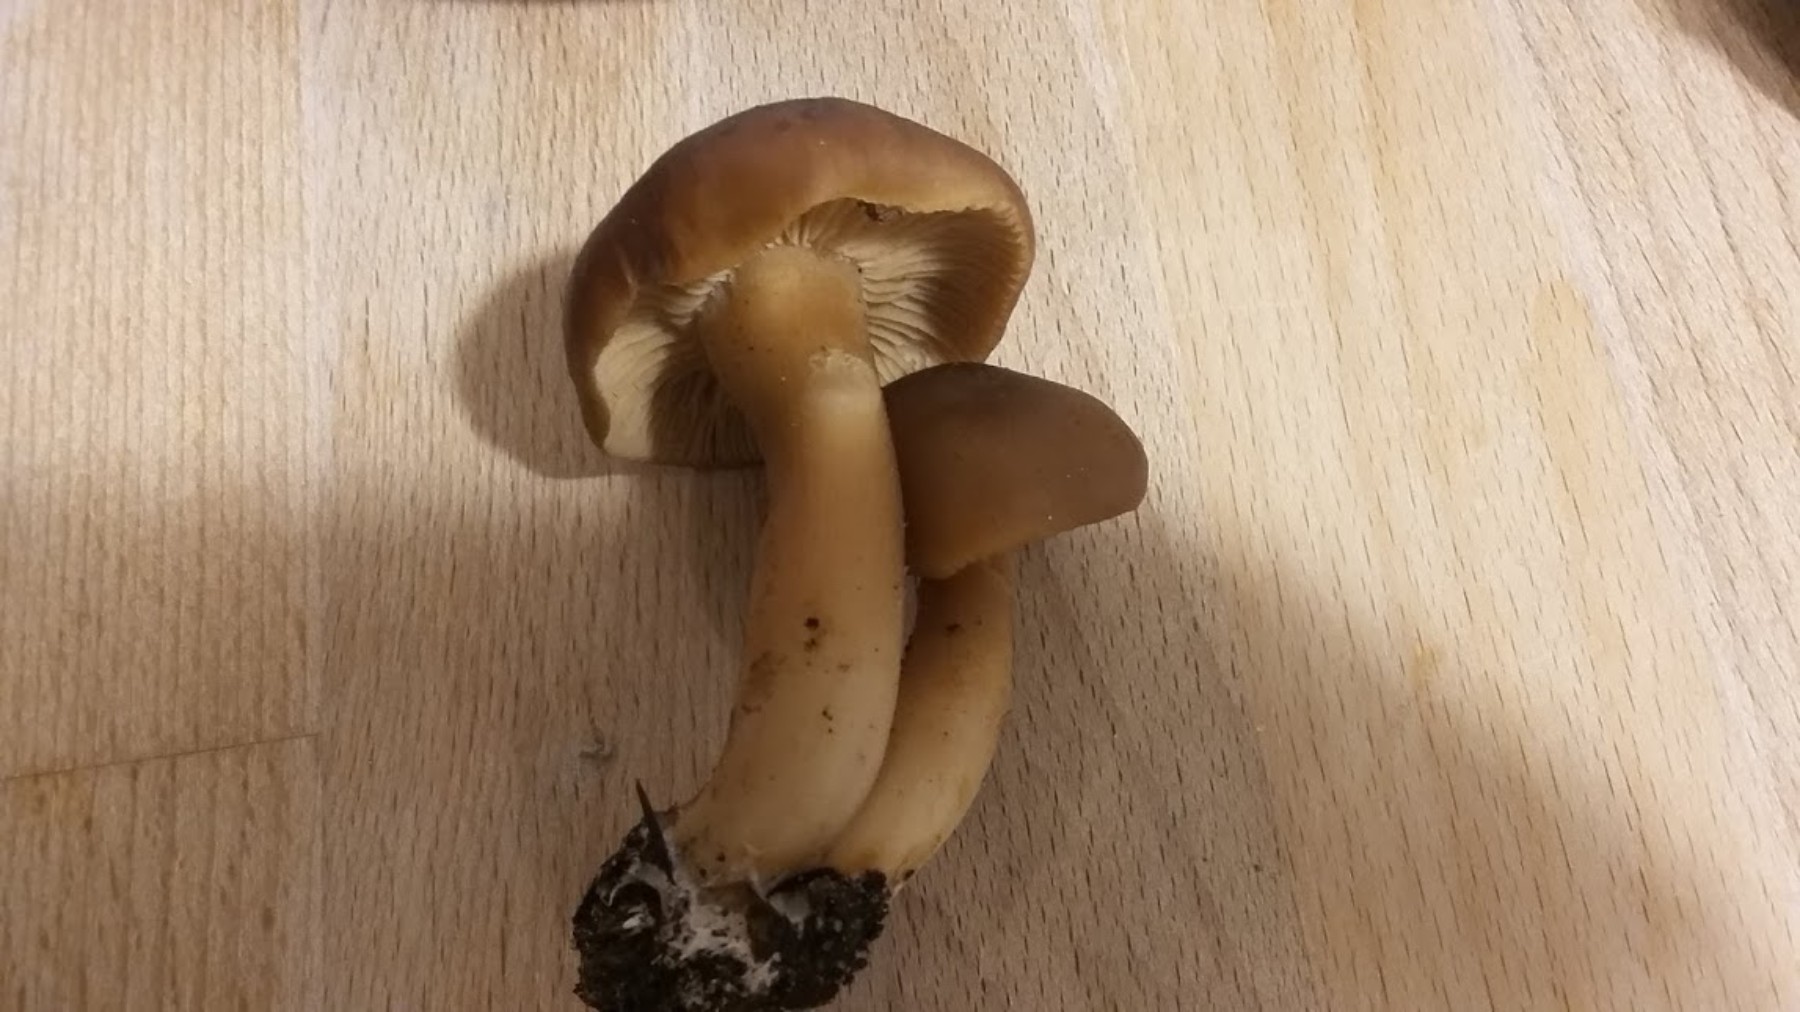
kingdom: Fungi
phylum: Basidiomycota
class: Agaricomycetes
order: Agaricales
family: Lyophyllaceae
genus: Lyophyllum
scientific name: Lyophyllum decastes
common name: røggrå gråblad
